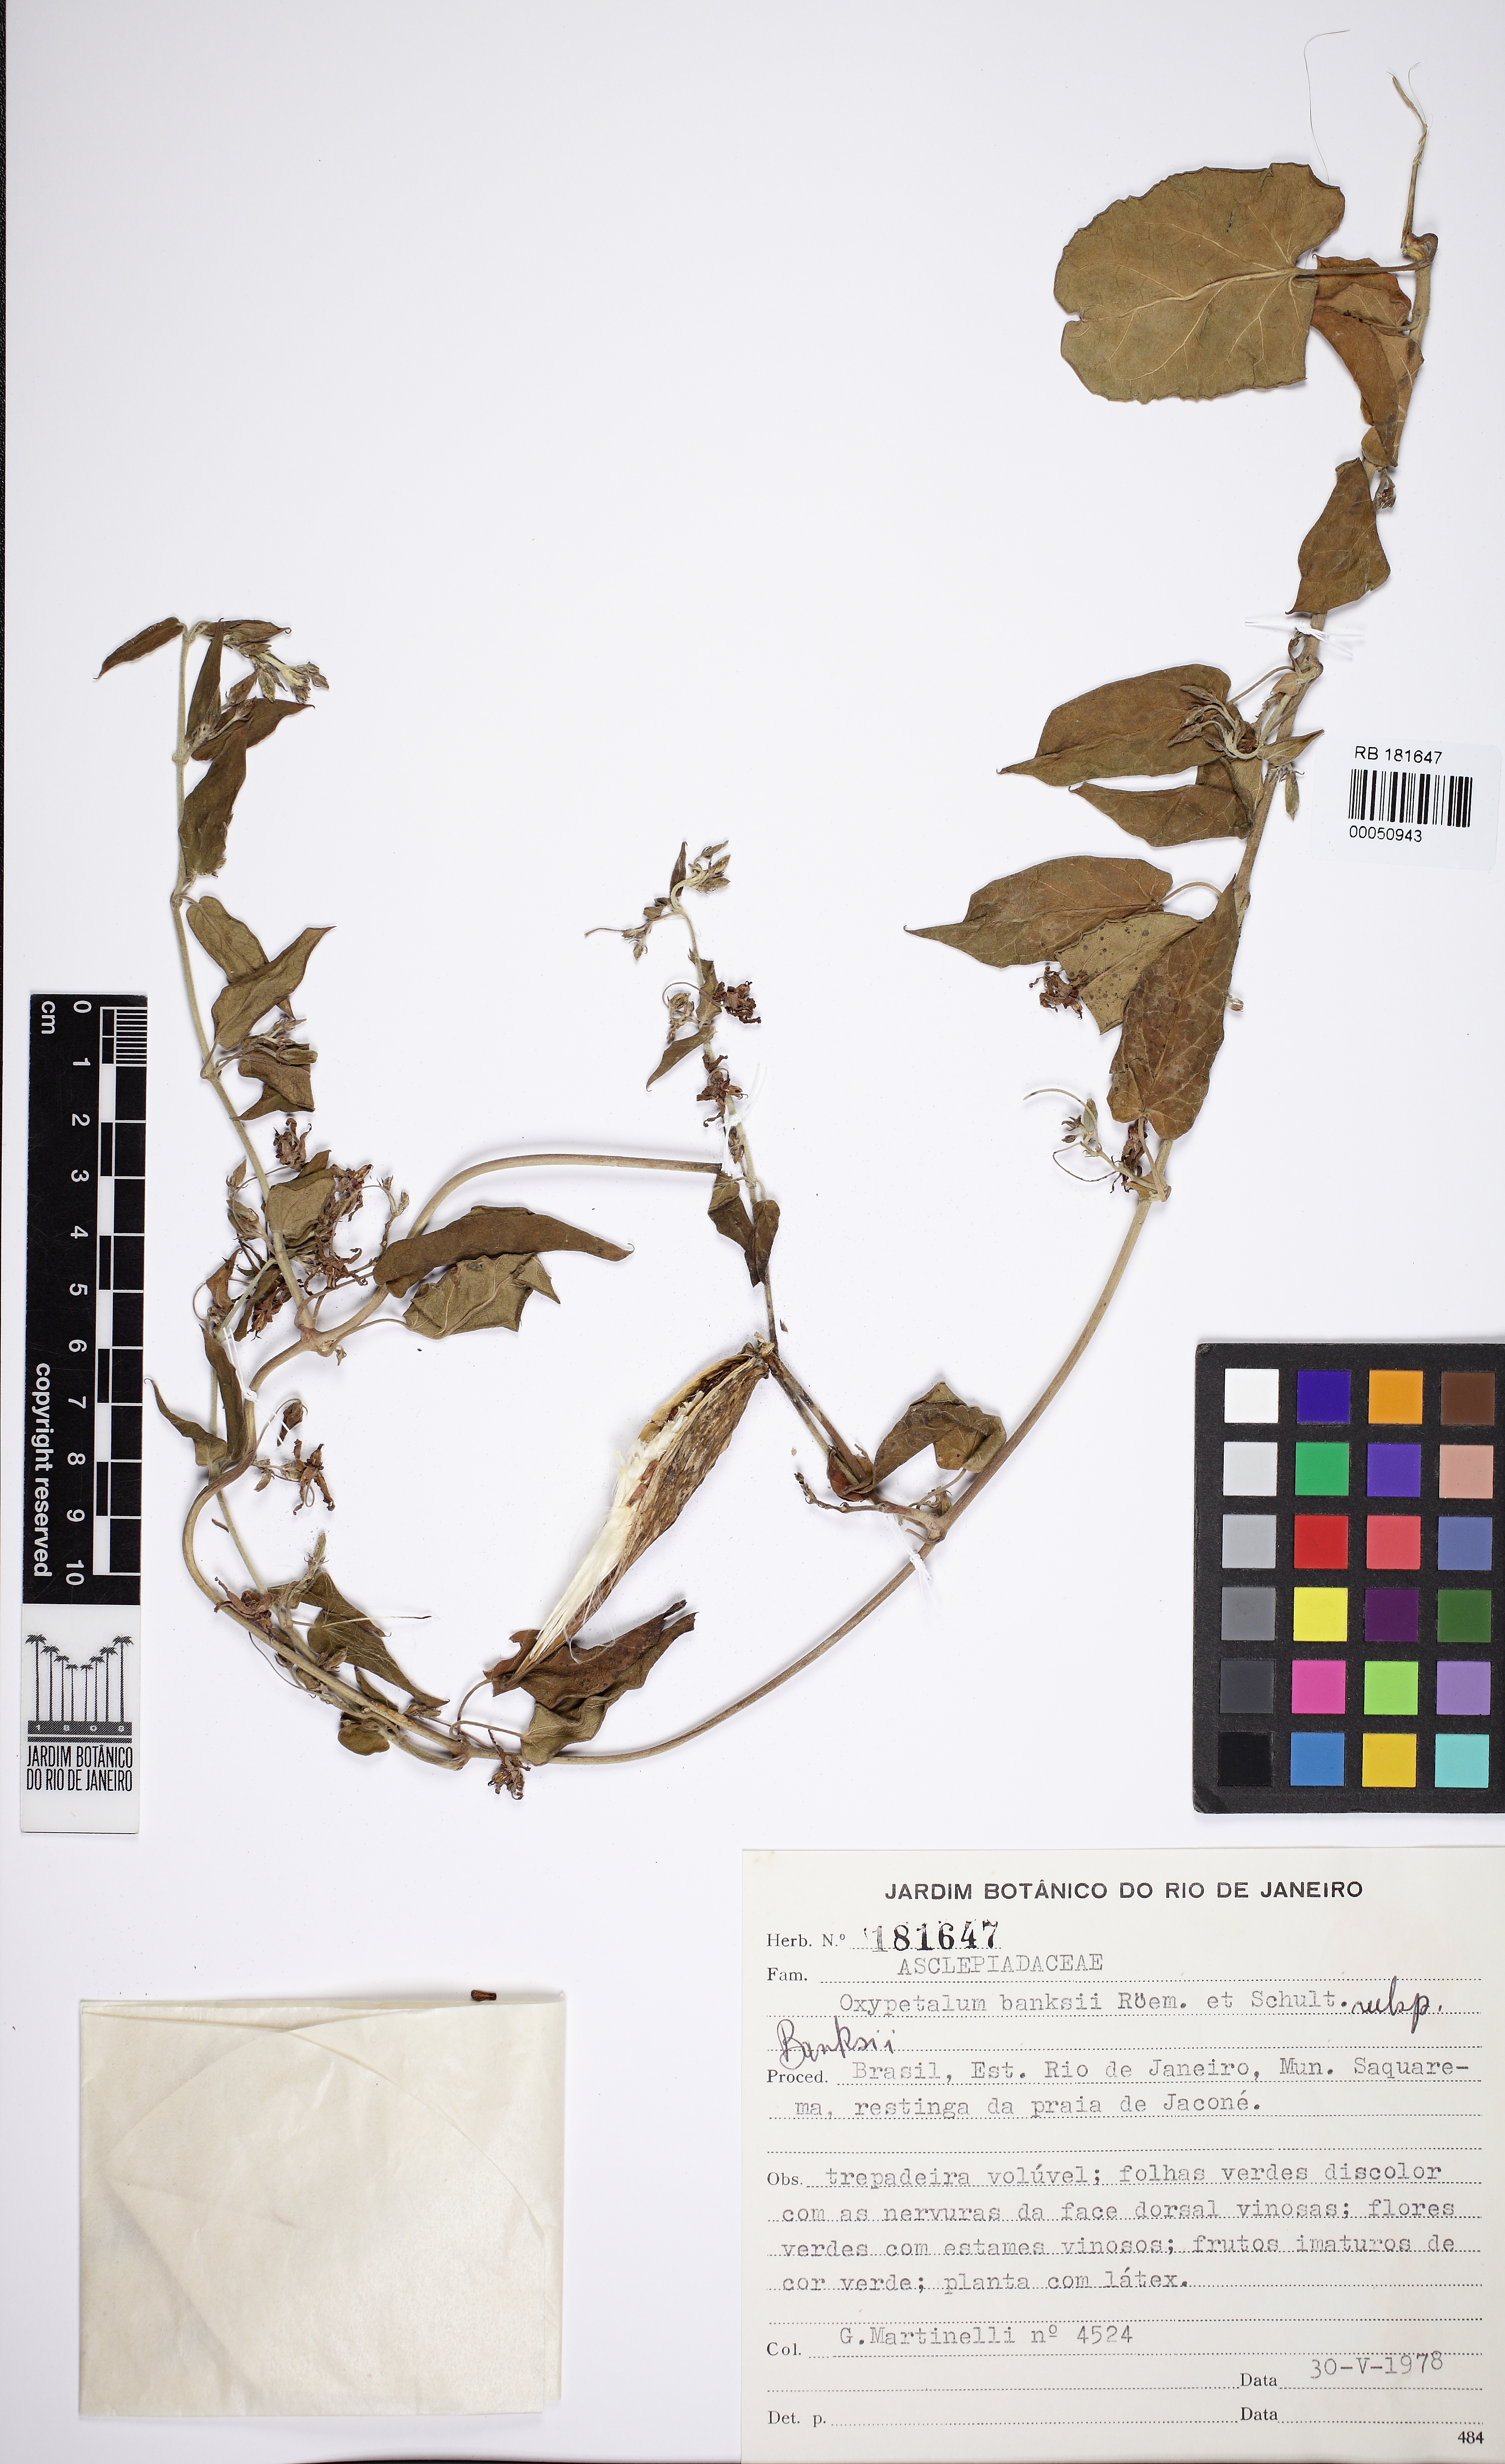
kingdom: Plantae
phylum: Tracheophyta
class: Magnoliopsida
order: Gentianales
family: Apocynaceae
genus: Oxypetalum
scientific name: Oxypetalum banksii
